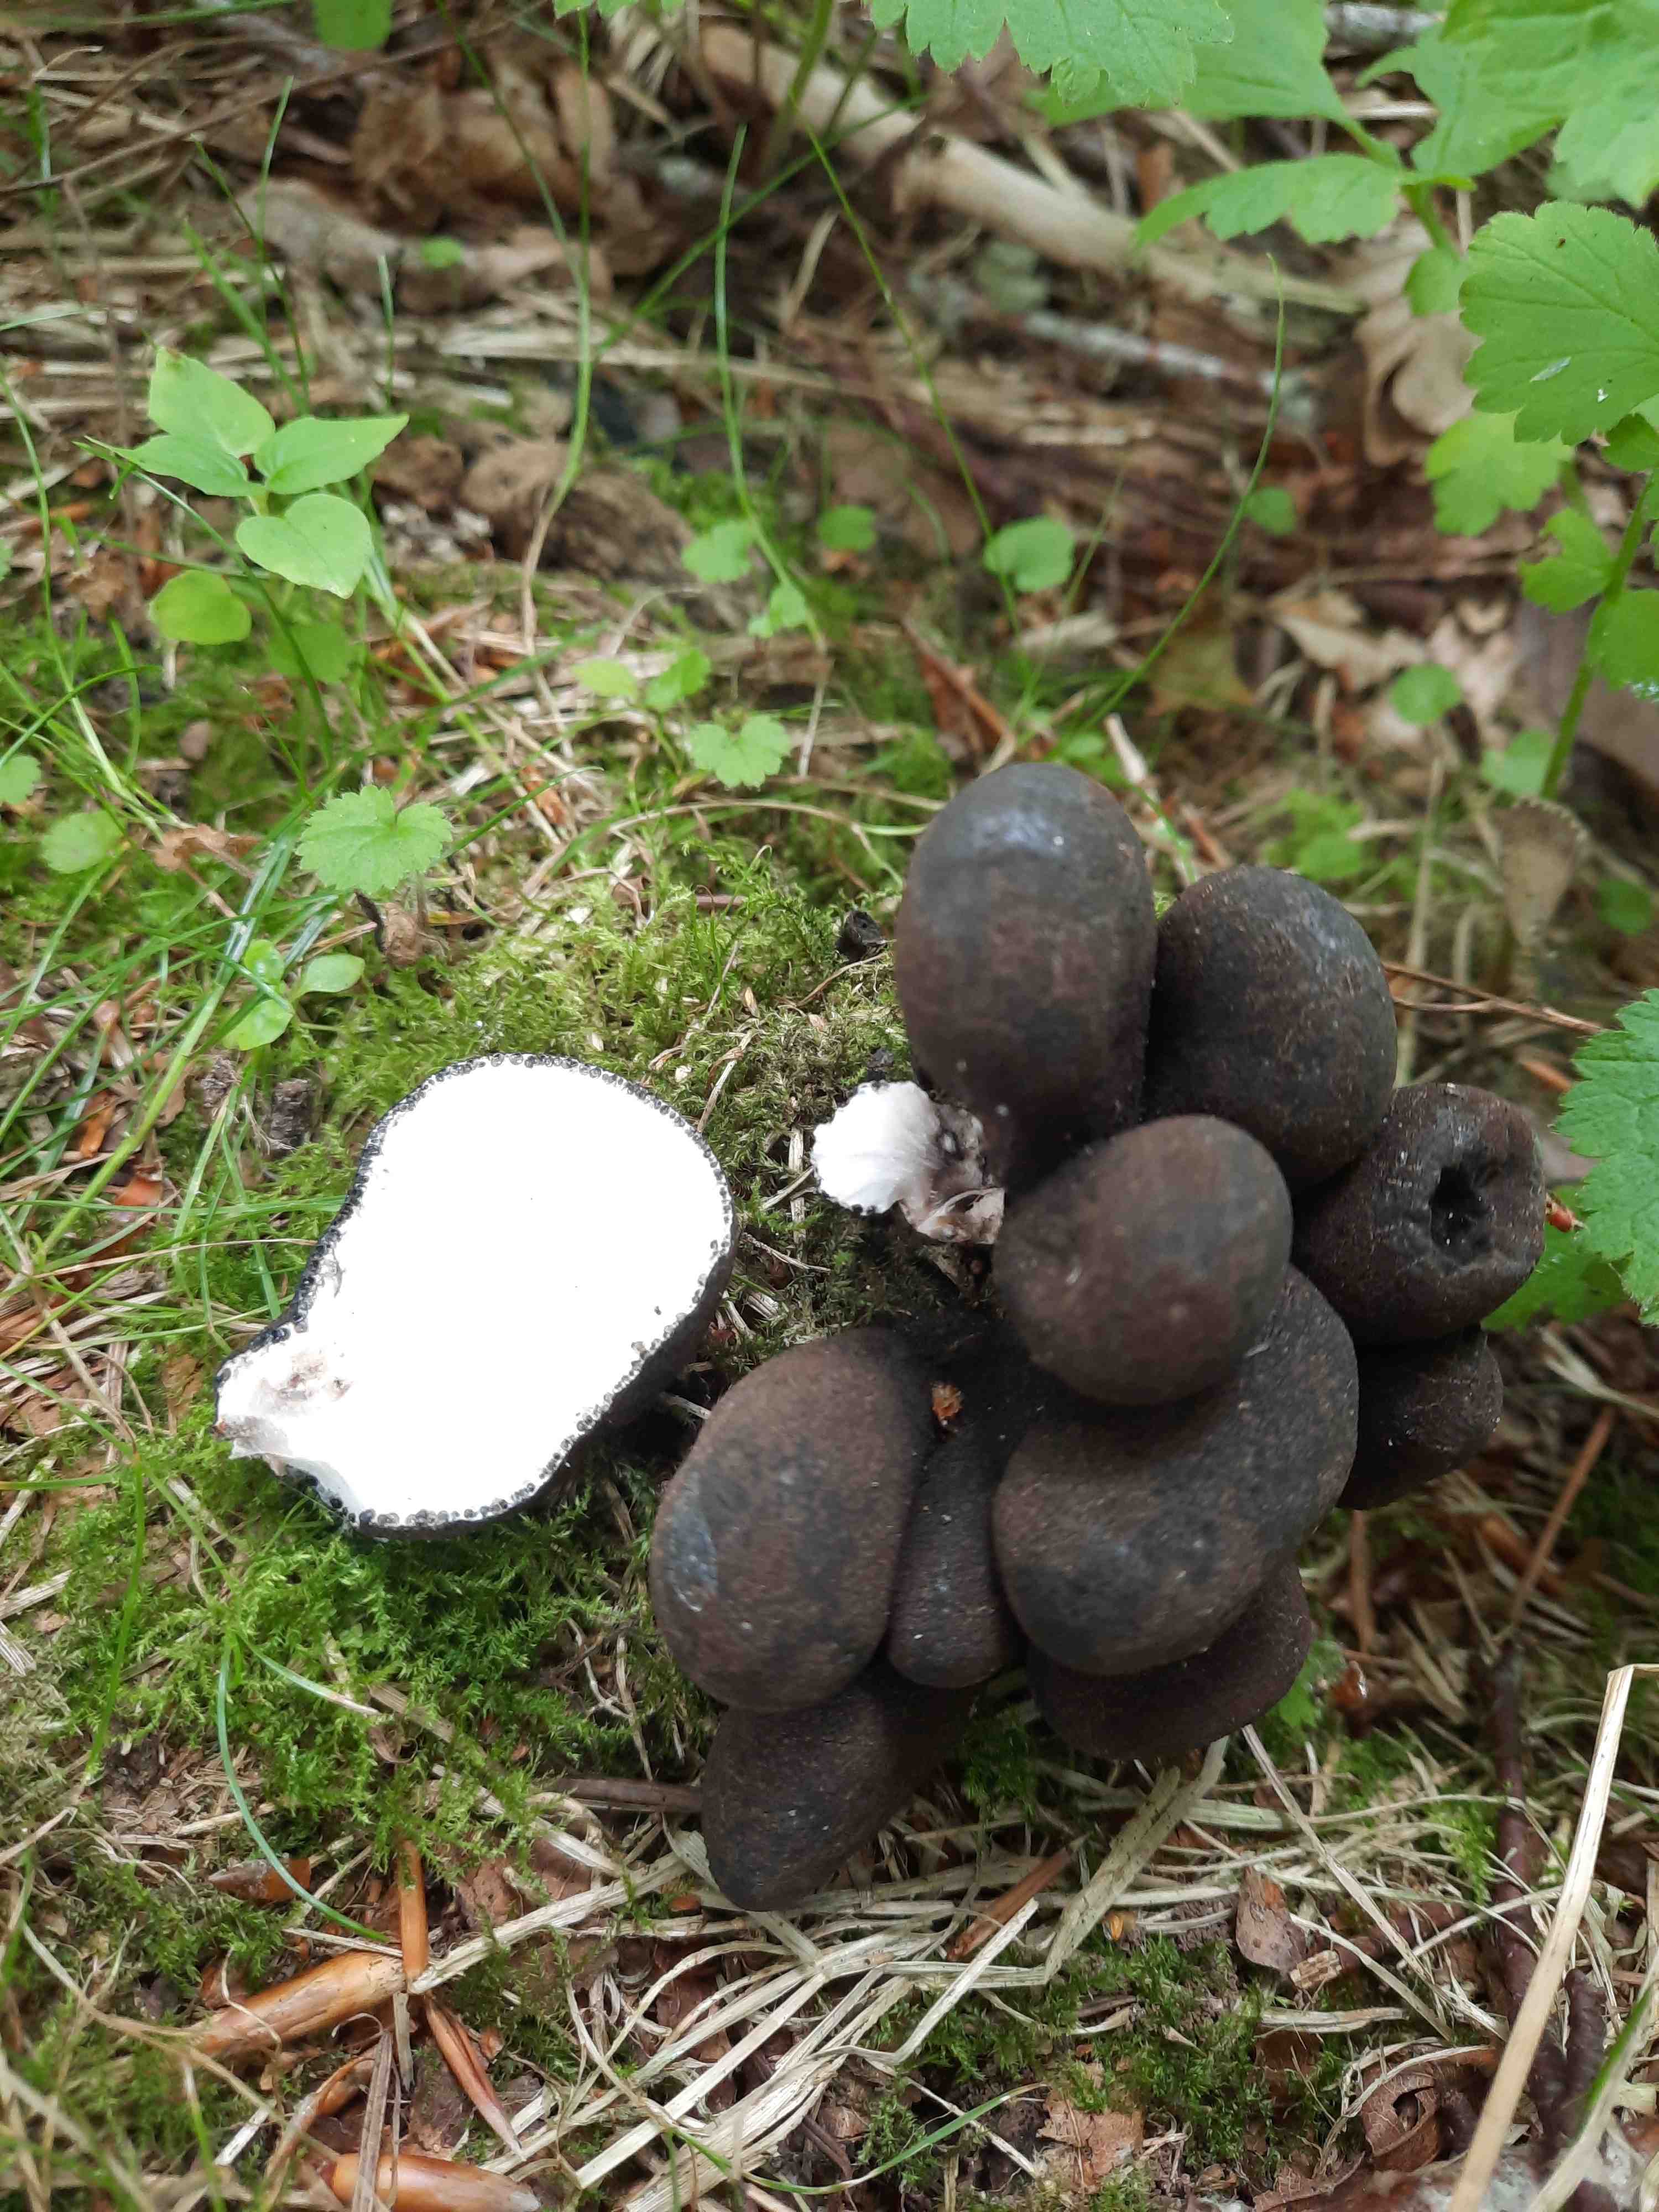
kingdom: Fungi
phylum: Ascomycota
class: Sordariomycetes
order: Xylariales
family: Xylariaceae
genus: Xylaria
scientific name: Xylaria polymorpha
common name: kølle-stødsvamp
